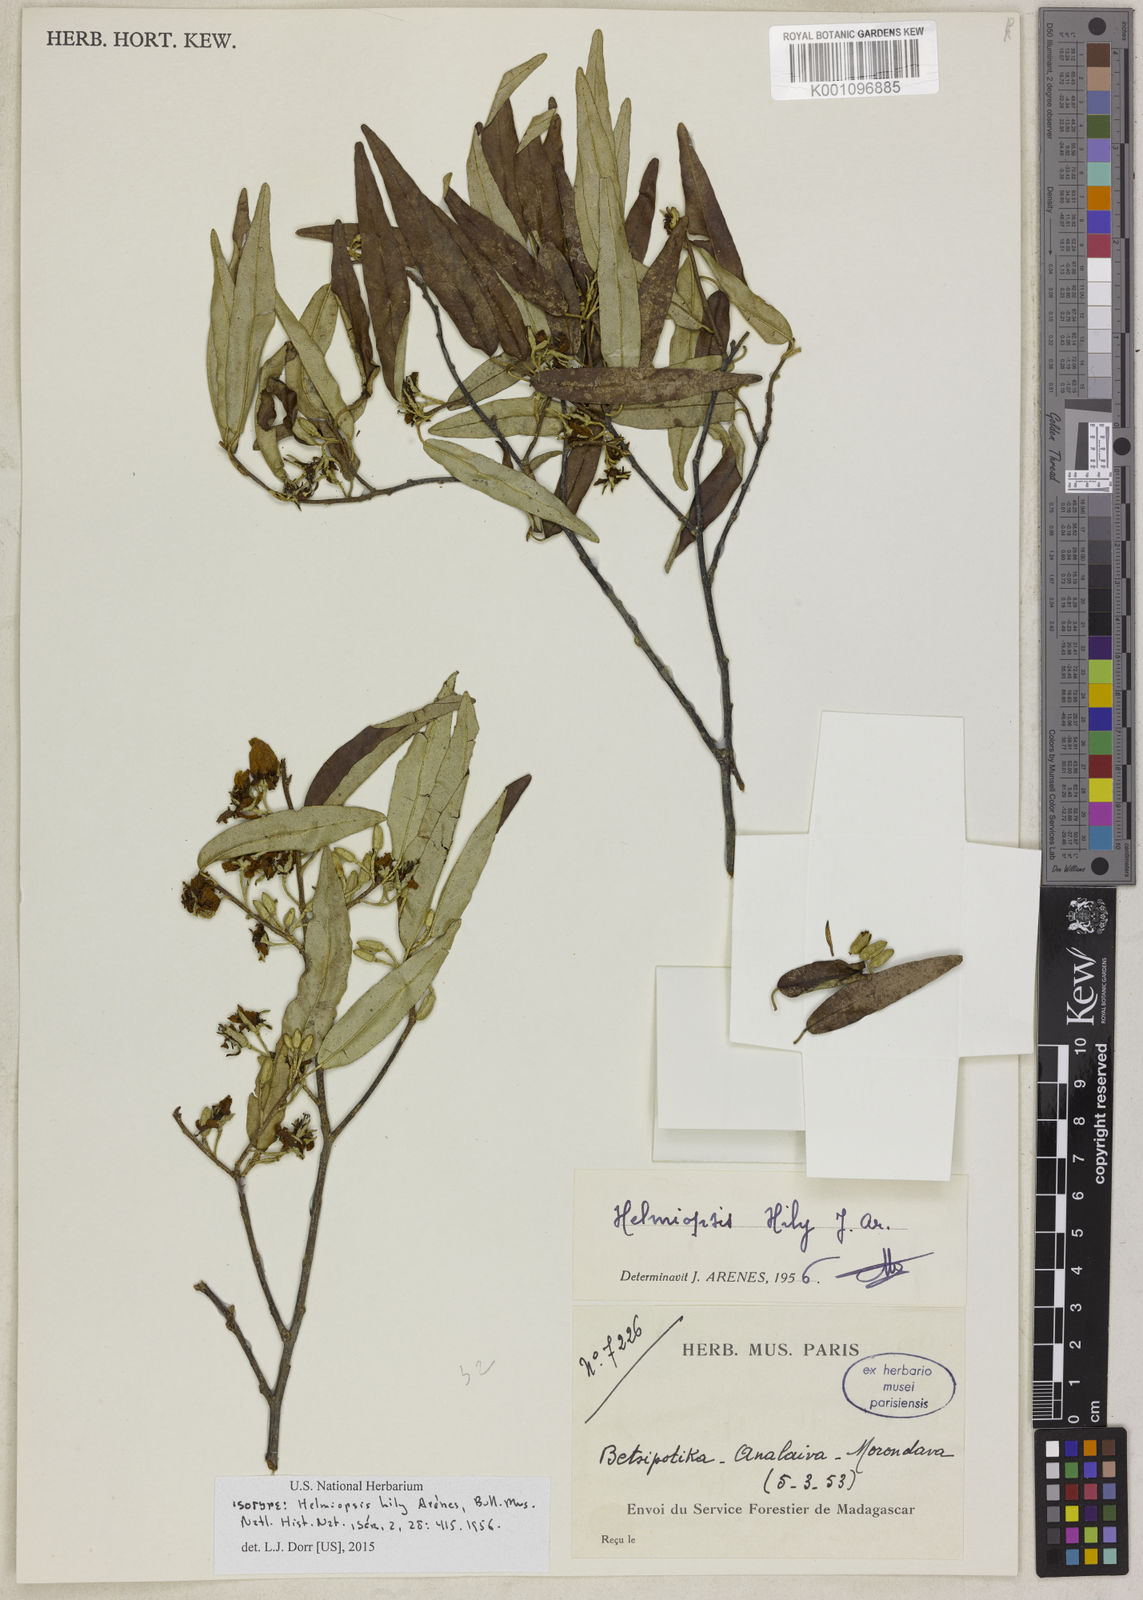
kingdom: Plantae
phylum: Tracheophyta
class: Magnoliopsida
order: Malvales
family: Malvaceae
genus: Eriolaena
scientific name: Eriolaena
